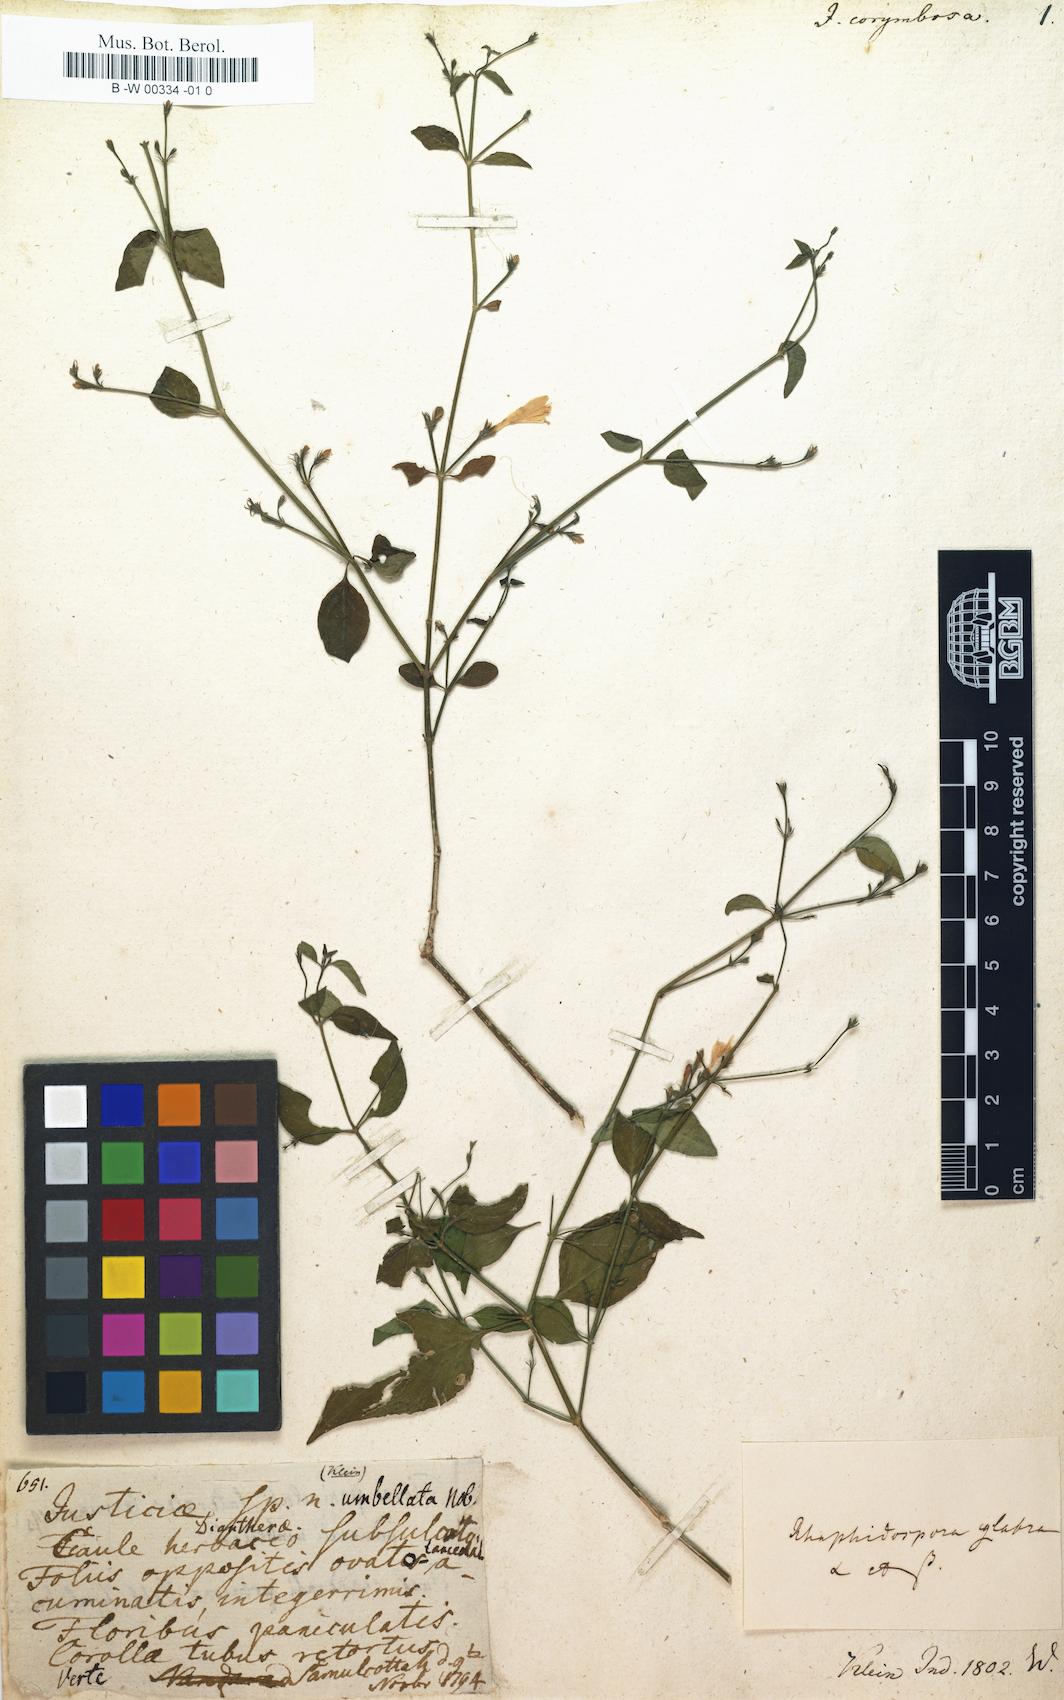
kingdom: Plantae
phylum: Tracheophyta
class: Magnoliopsida
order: Lamiales
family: Acanthaceae
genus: Justicia
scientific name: Justicia scandens
